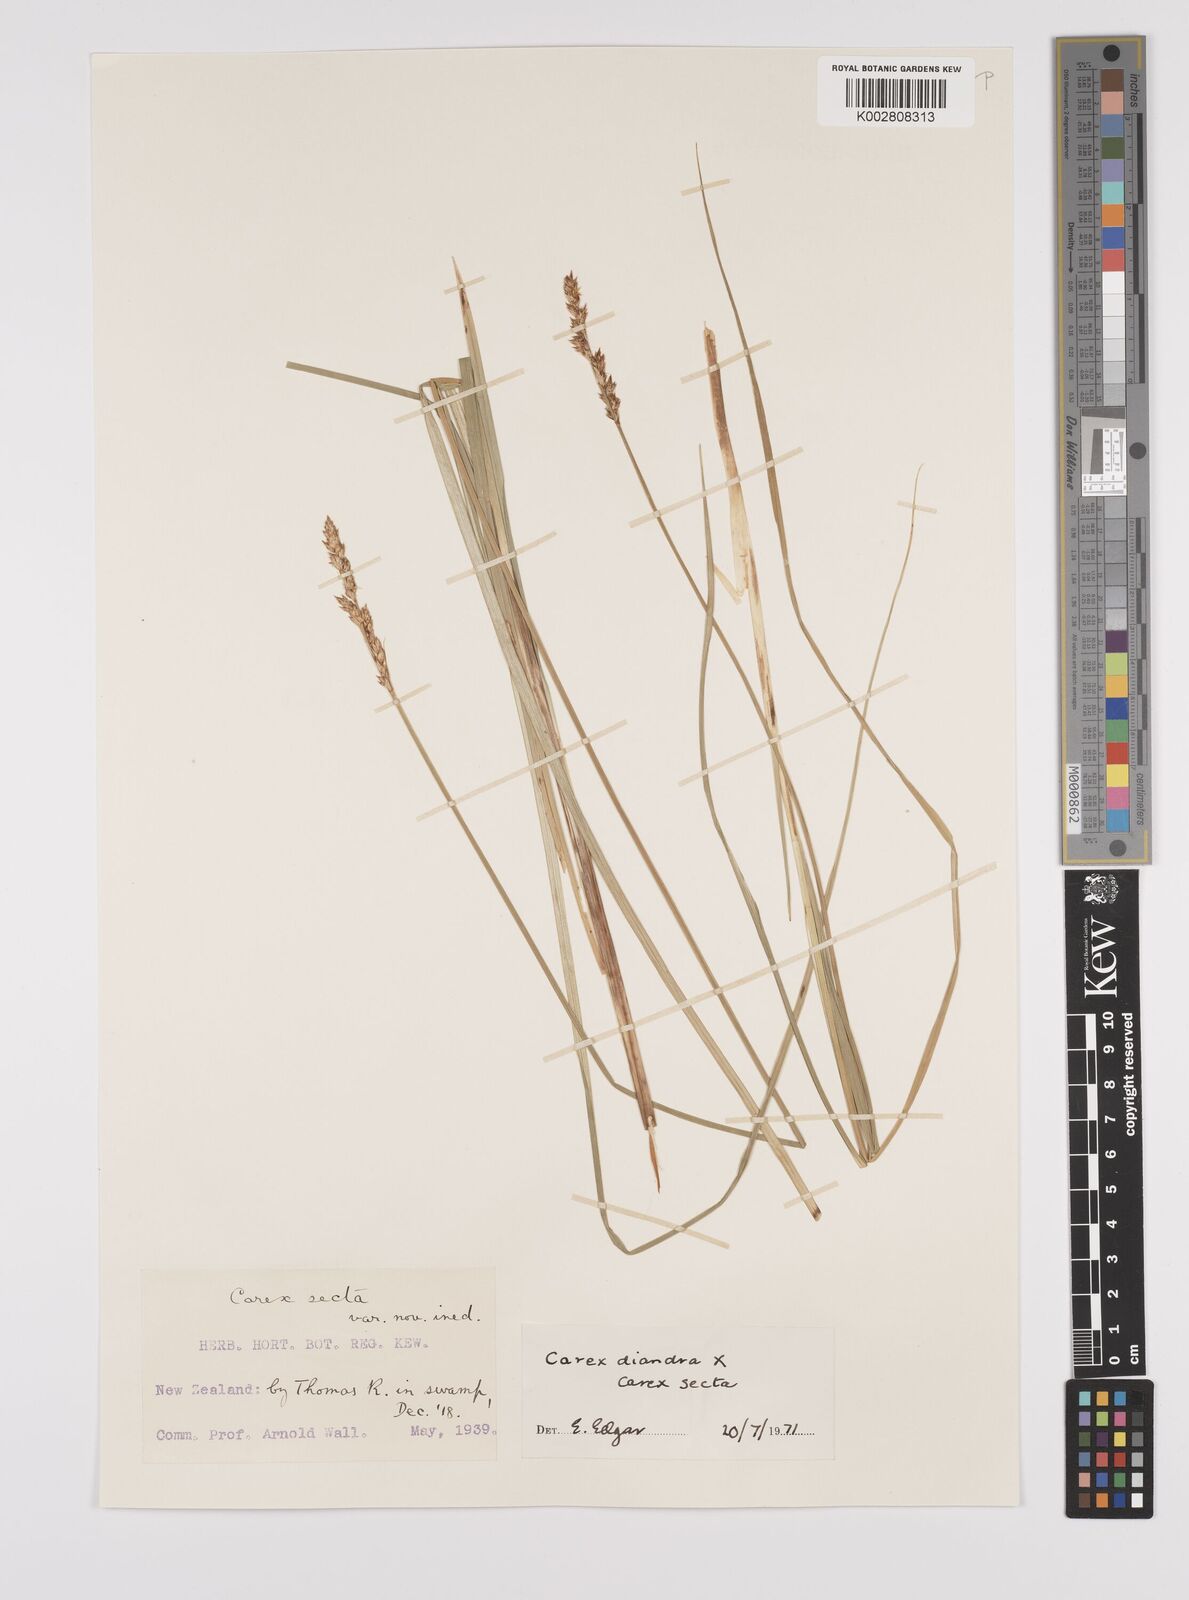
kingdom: Plantae
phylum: Tracheophyta
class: Liliopsida
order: Poales
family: Cyperaceae
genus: Carex
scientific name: Carex appressa
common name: Tussock sedge
